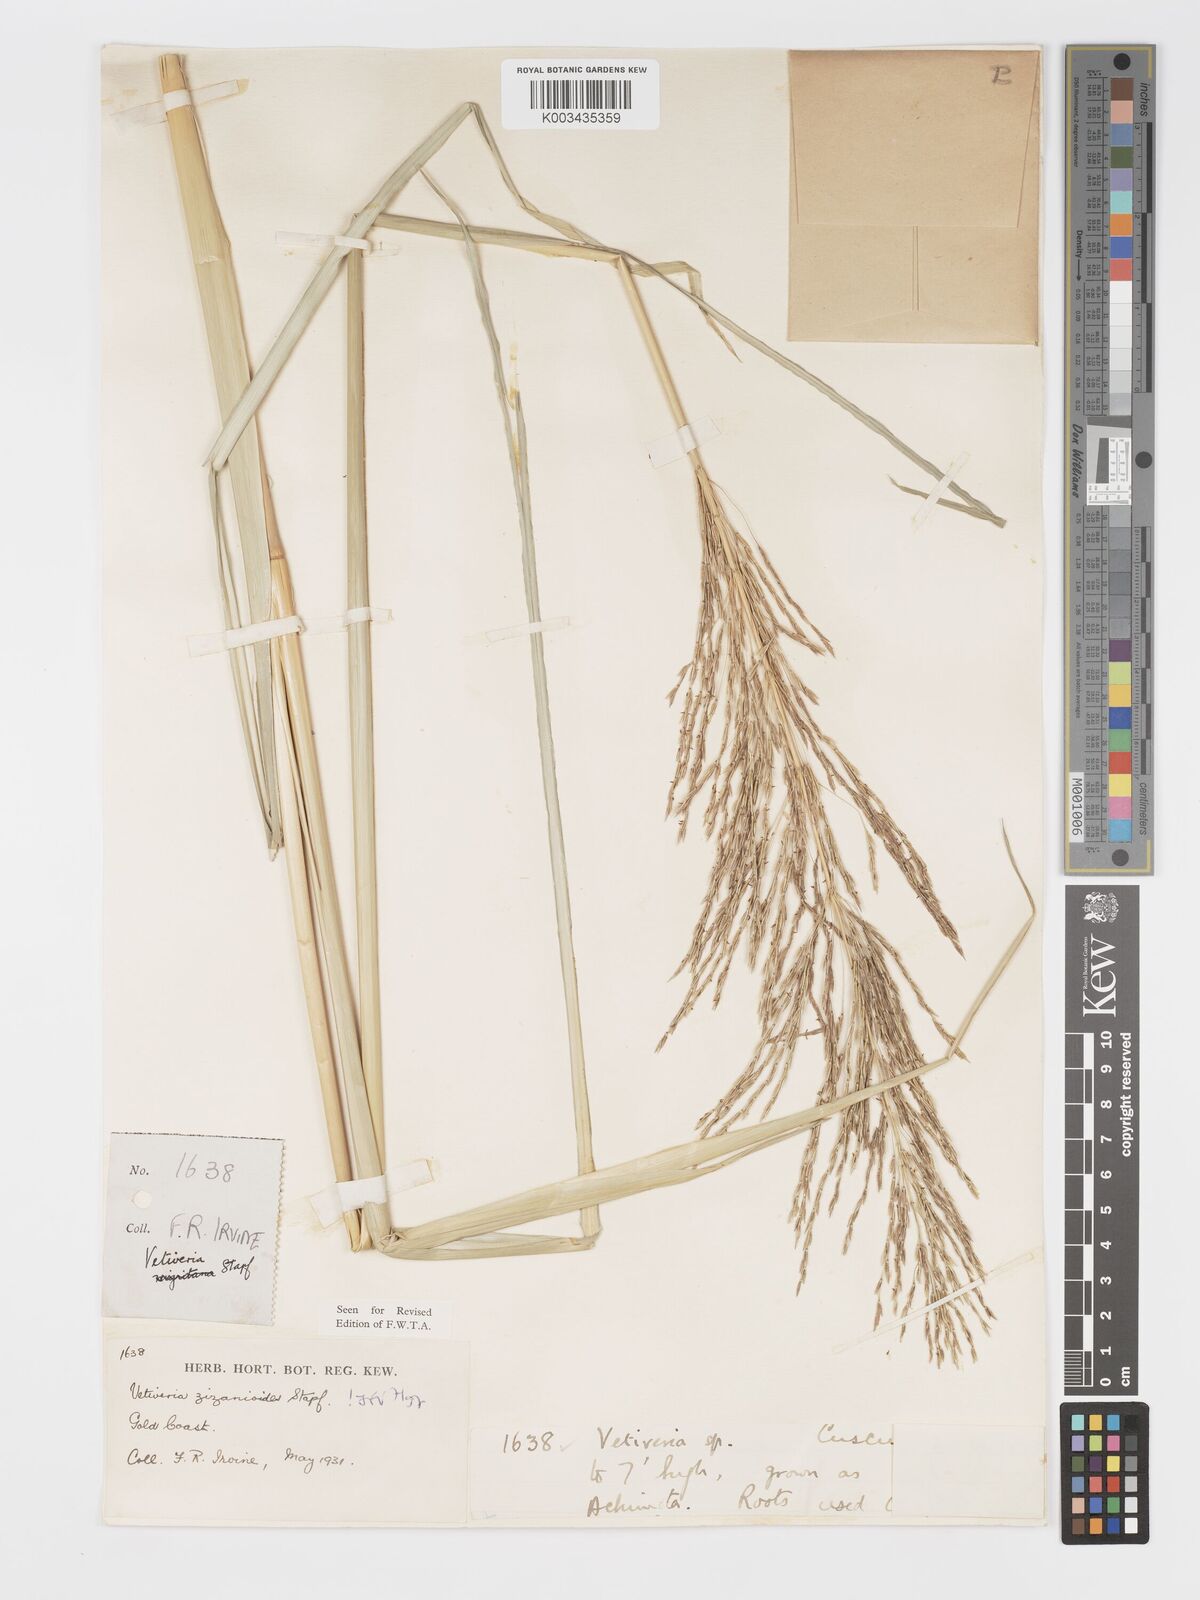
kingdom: Plantae
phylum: Tracheophyta
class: Liliopsida
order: Poales
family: Poaceae
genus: Chrysopogon
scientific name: Chrysopogon zizanioides
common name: False beardgrass
